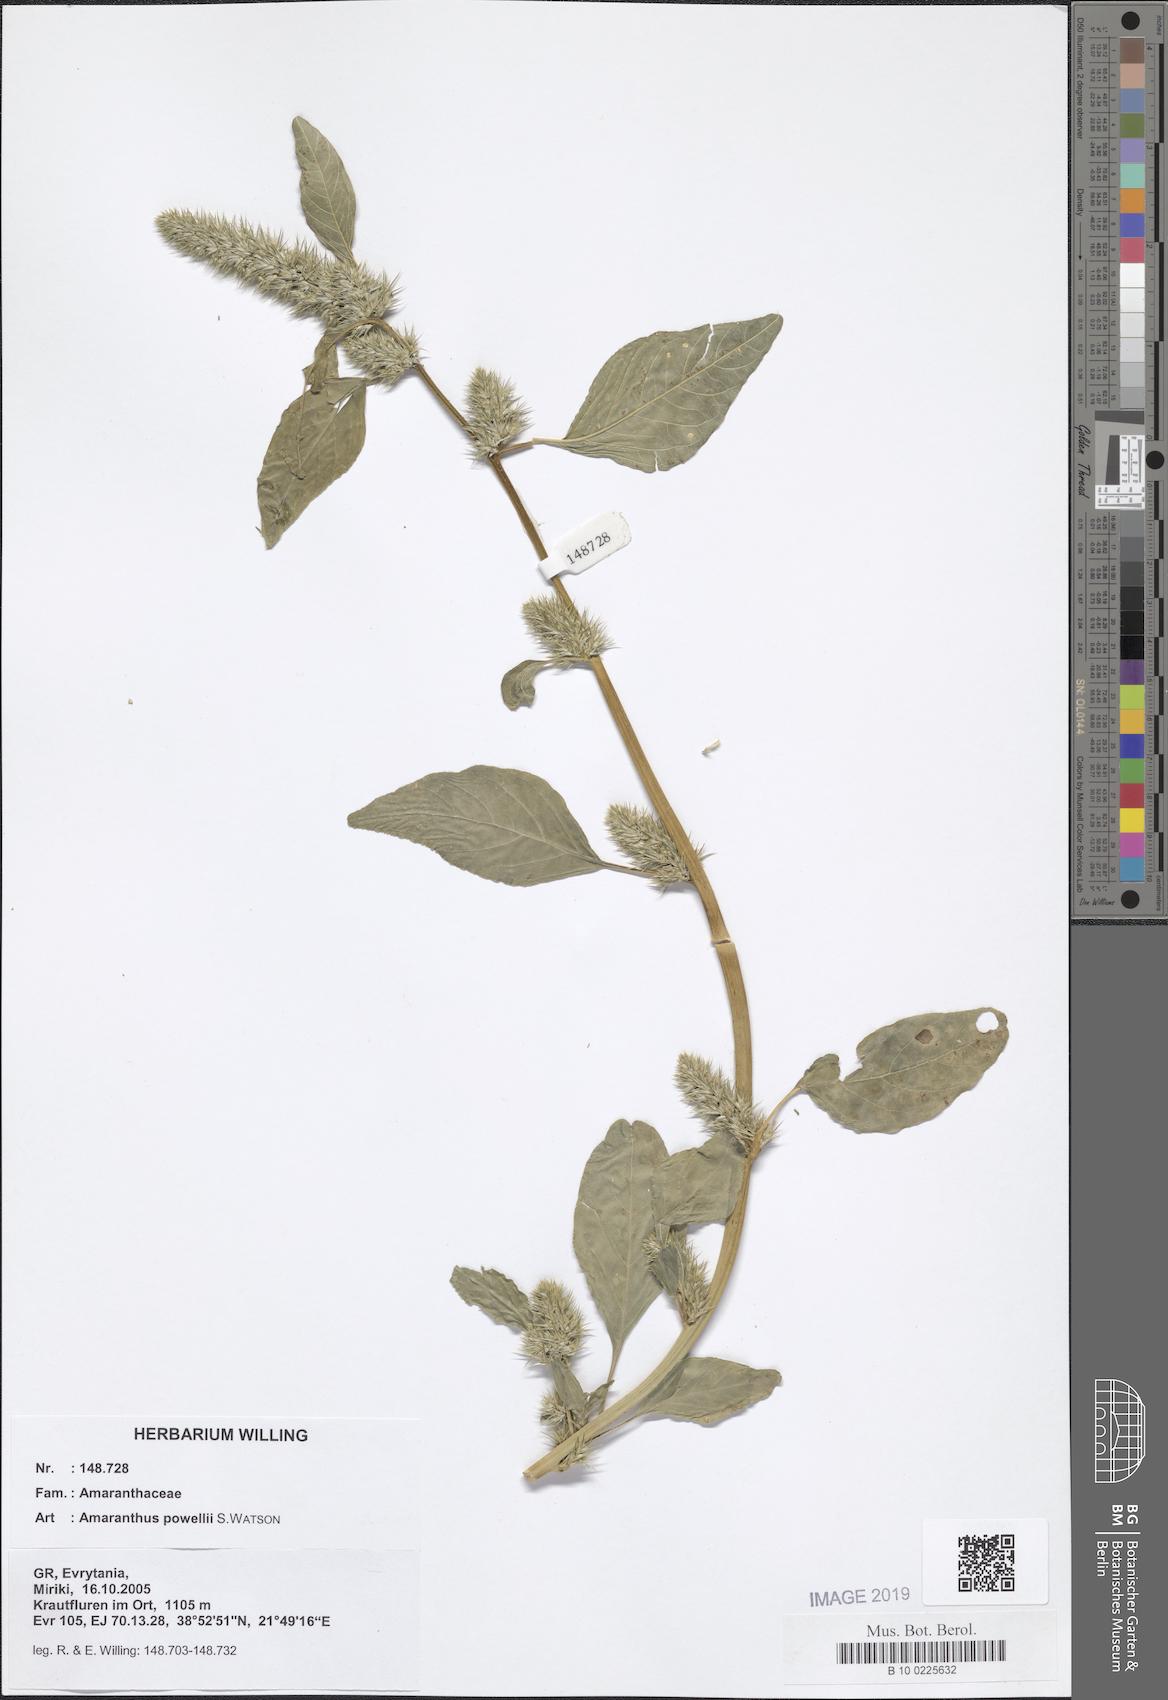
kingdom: Plantae
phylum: Tracheophyta
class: Magnoliopsida
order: Caryophyllales
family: Amaranthaceae
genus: Amaranthus
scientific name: Amaranthus powellii
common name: Powell's amaranth
